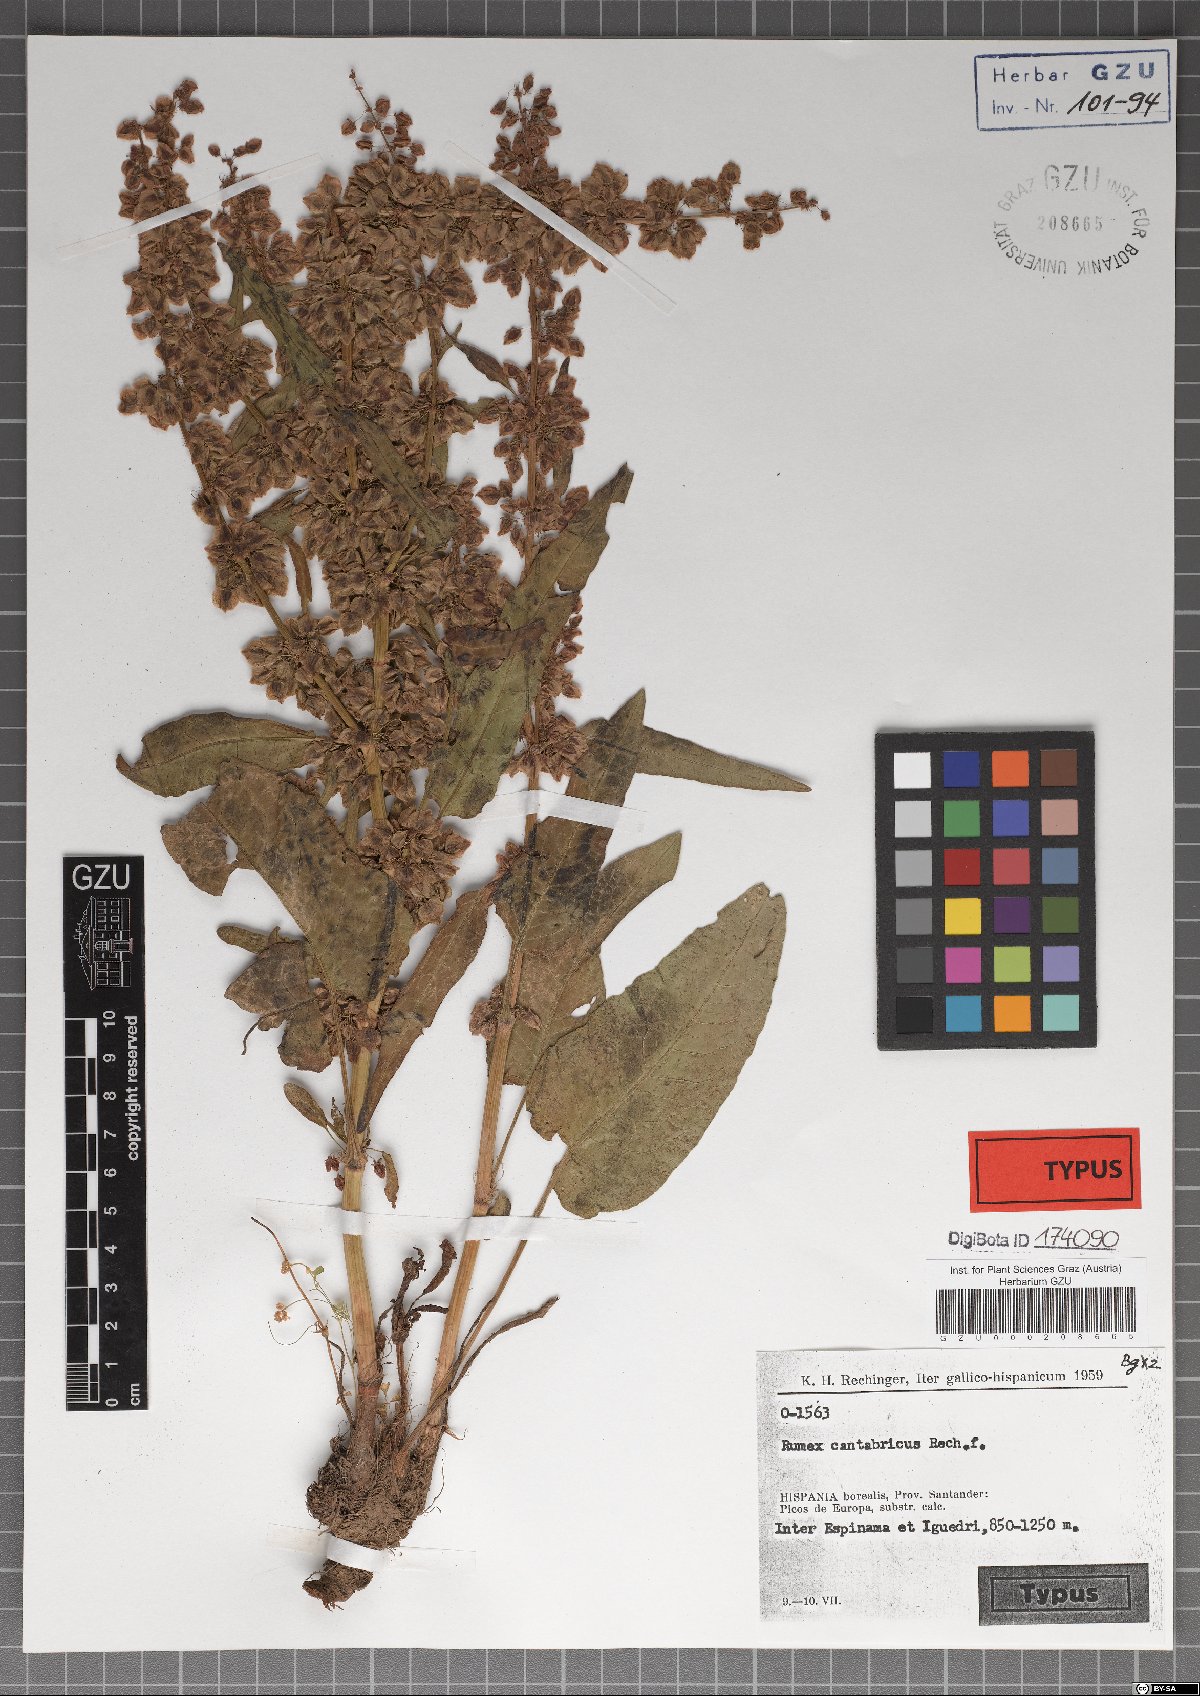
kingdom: Plantae
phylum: Tracheophyta
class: Magnoliopsida
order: Caryophyllales
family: Polygonaceae
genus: Rumex
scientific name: Rumex aquitanicus
